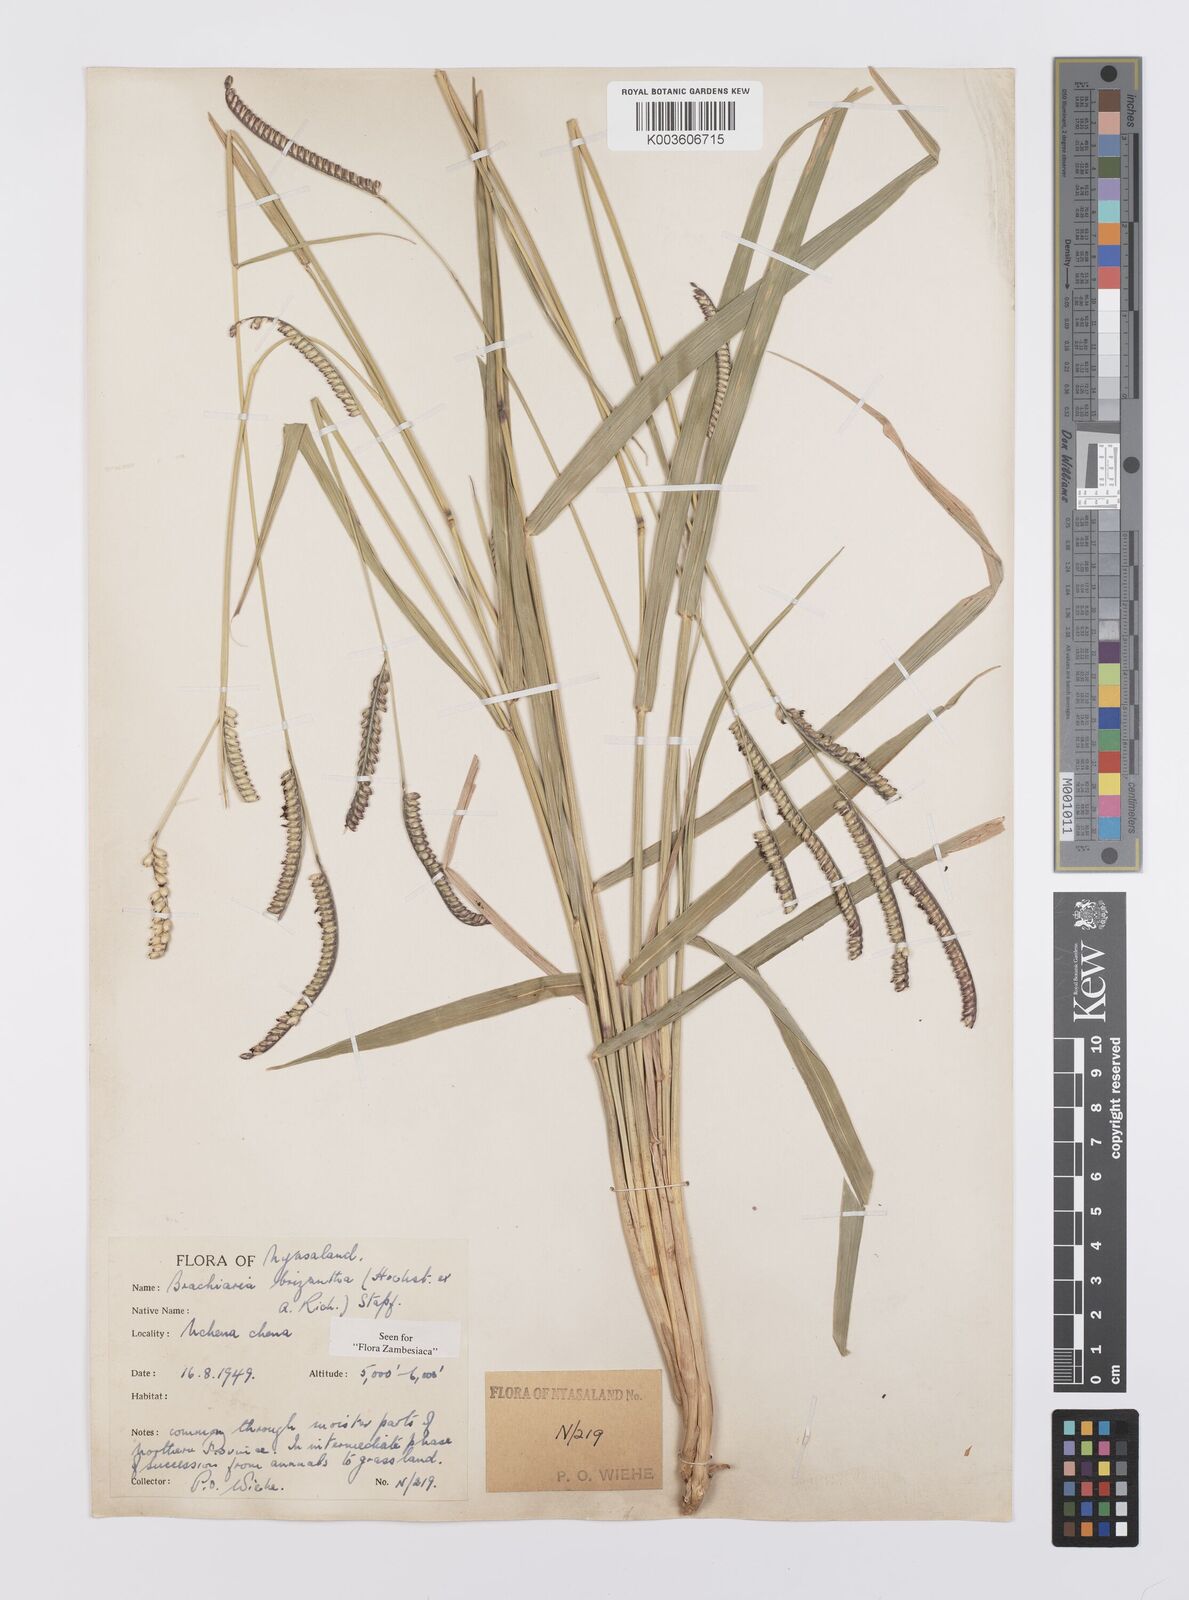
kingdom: Plantae
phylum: Tracheophyta
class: Liliopsida
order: Poales
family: Poaceae
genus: Urochloa
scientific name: Urochloa brizantha
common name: Palisade signalgrass
